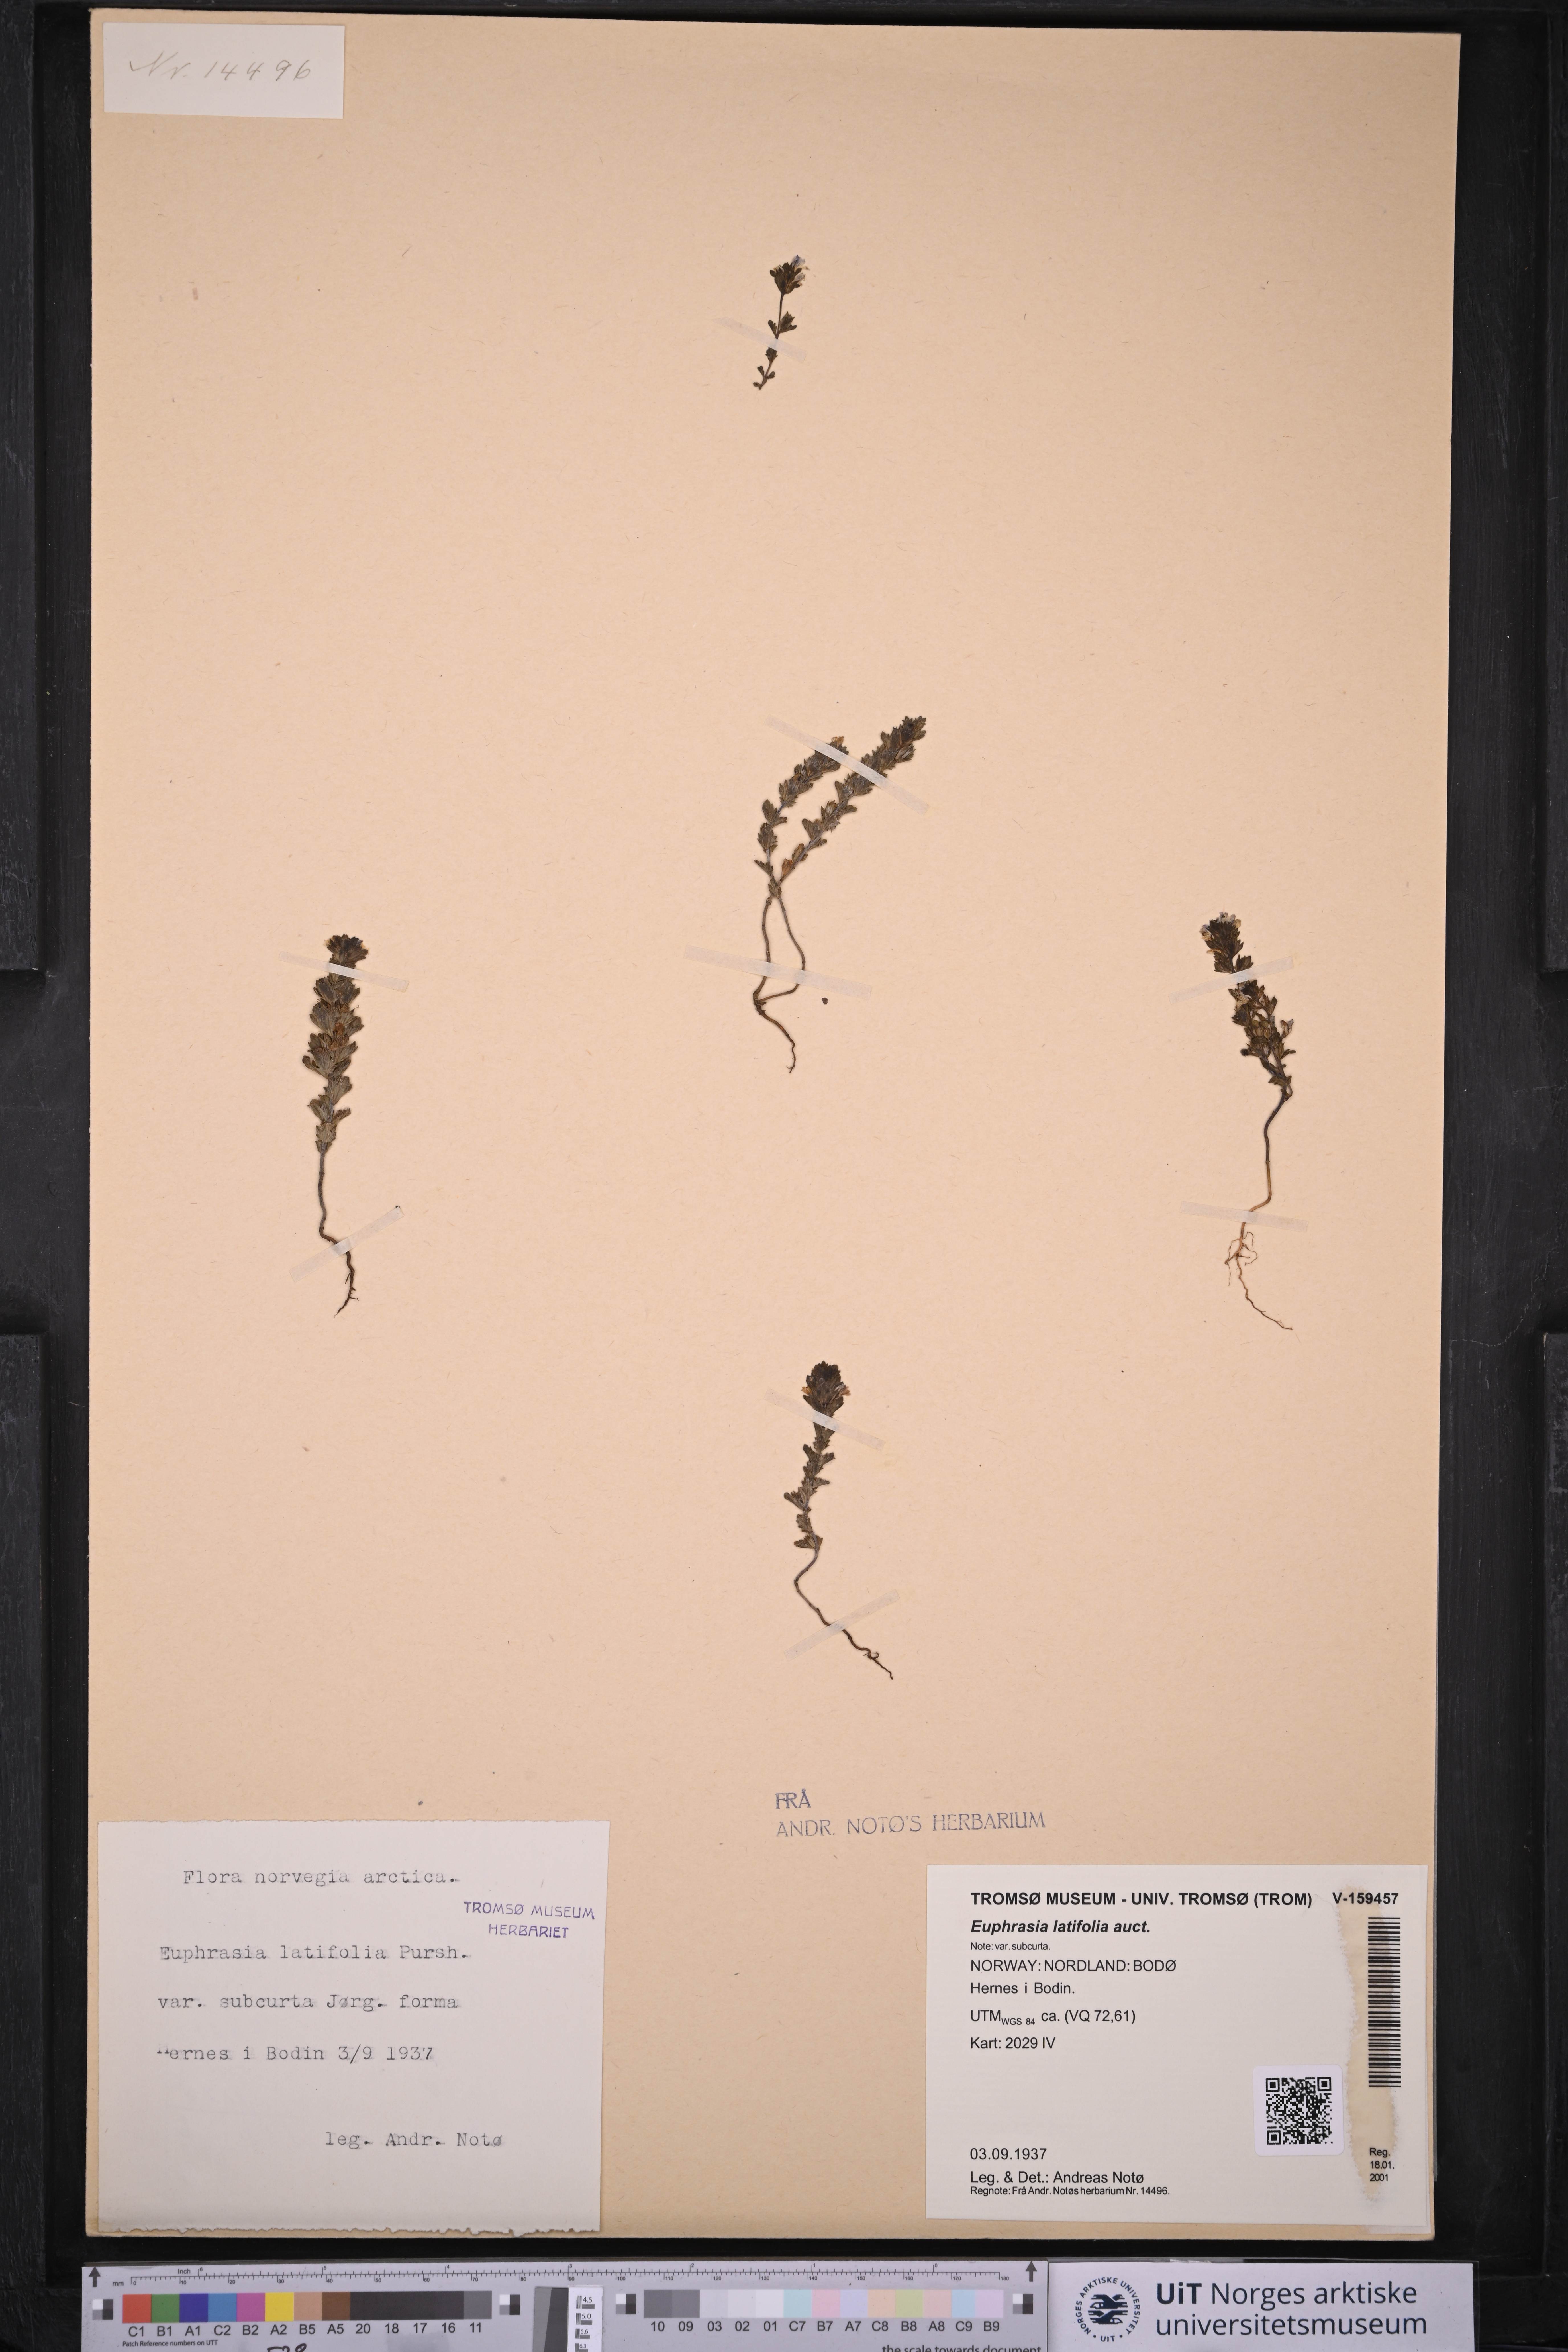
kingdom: Plantae
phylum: Tracheophyta
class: Magnoliopsida
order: Lamiales
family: Orobanchaceae
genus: Euphrasia
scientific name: Euphrasia wettsteinii
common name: Wettstein's eyebright
